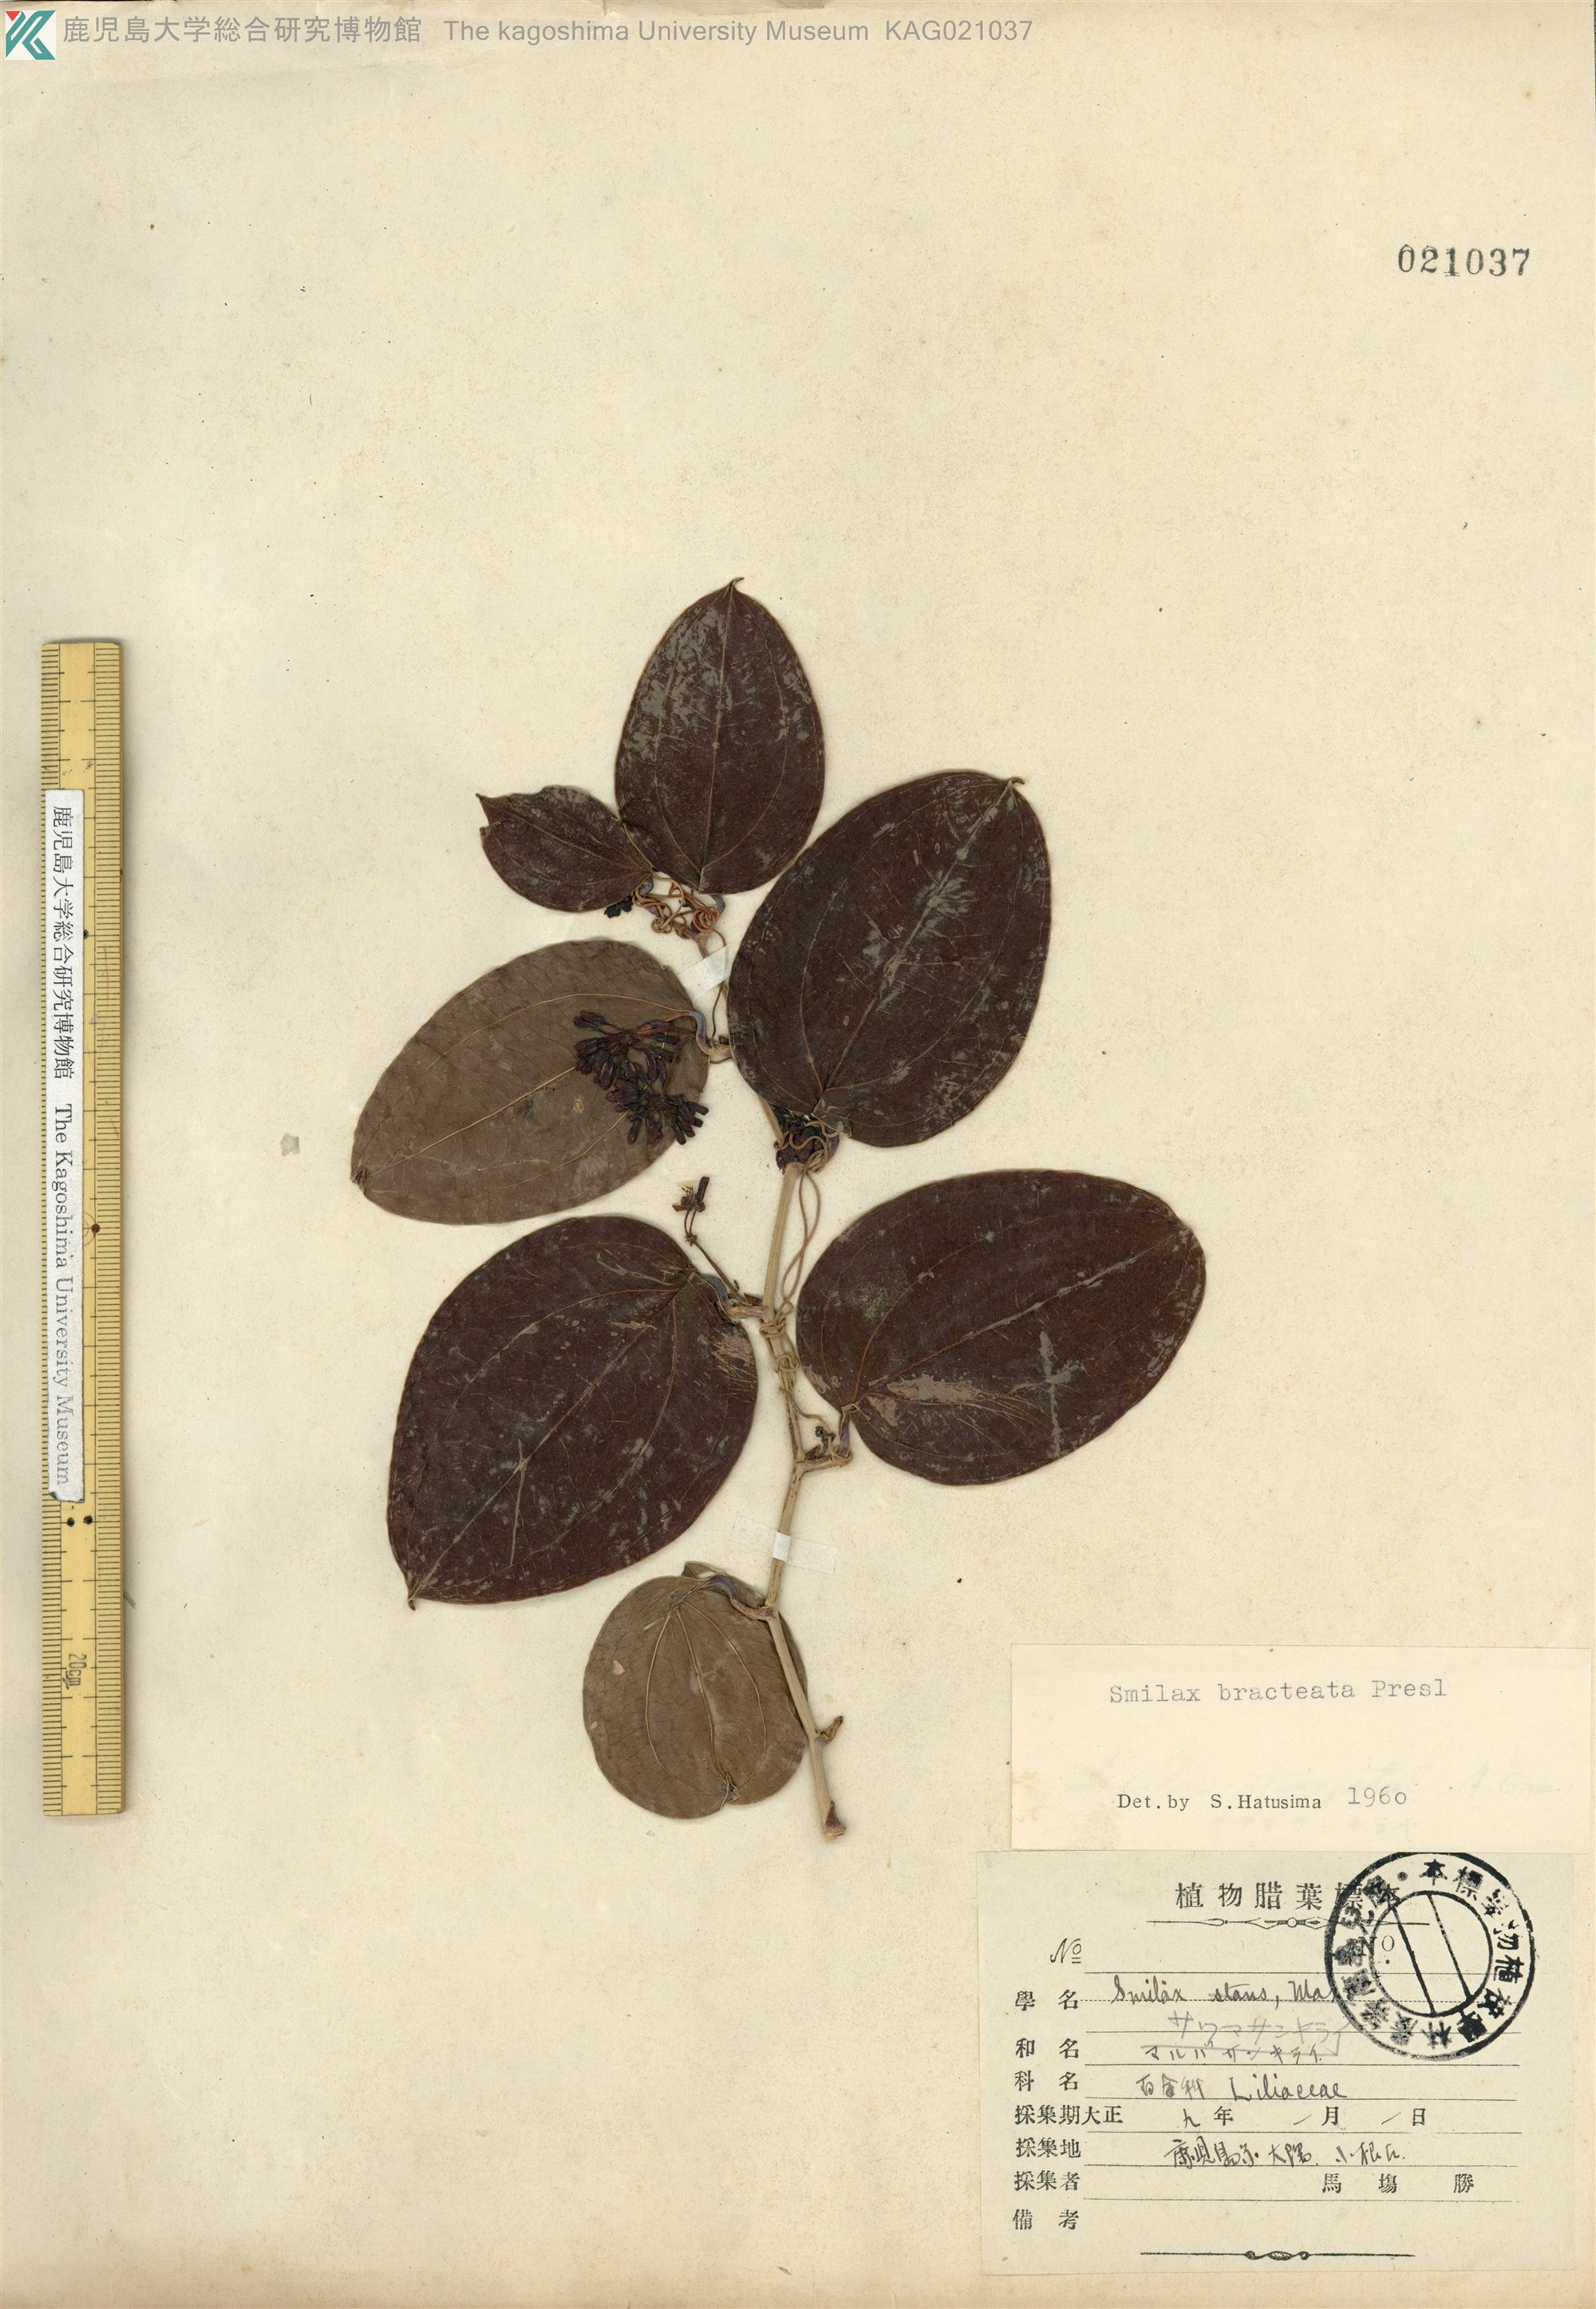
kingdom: Plantae
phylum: Tracheophyta
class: Liliopsida
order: Liliales
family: Smilacaceae
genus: Smilax
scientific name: Smilax bracteata
